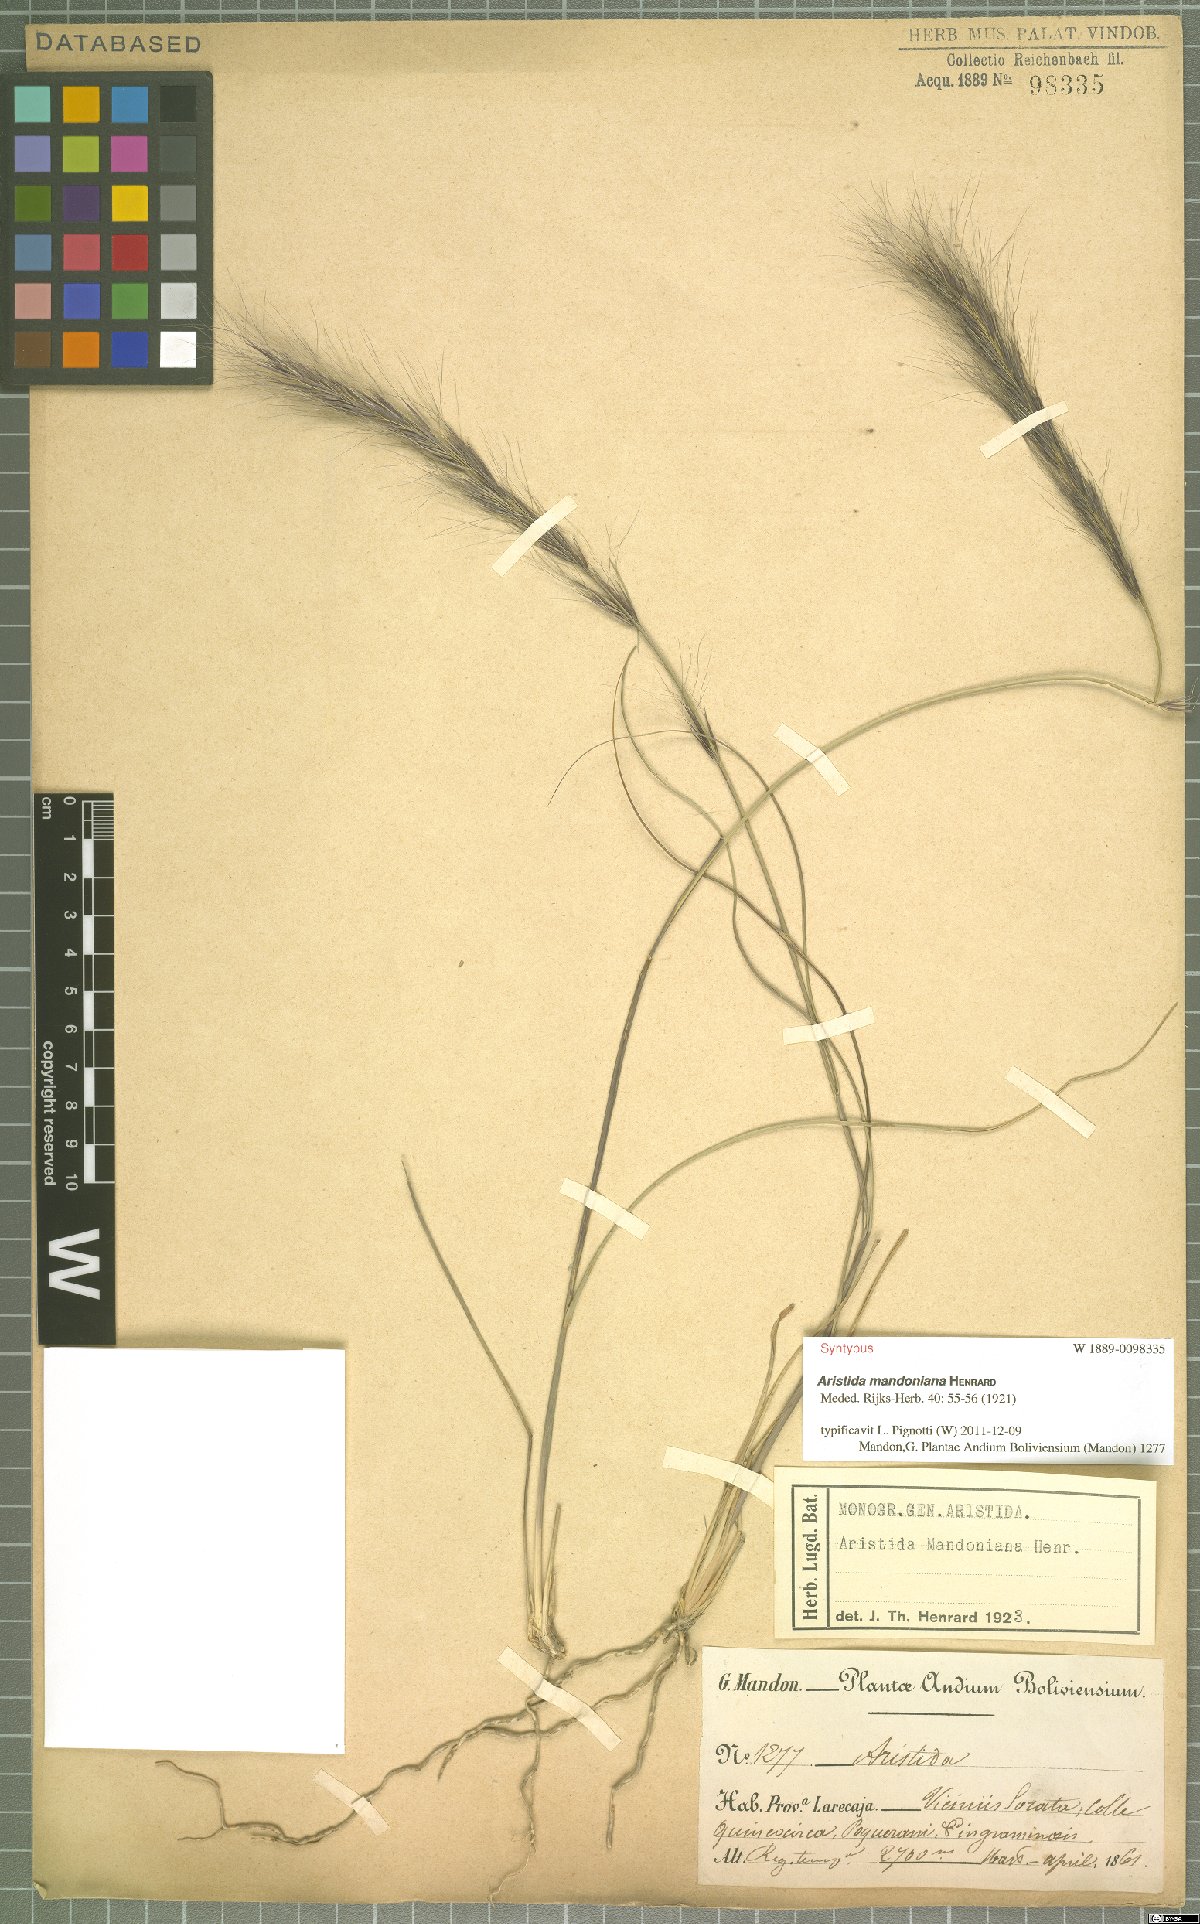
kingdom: Plantae
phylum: Tracheophyta
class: Liliopsida
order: Poales
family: Poaceae
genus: Aristida
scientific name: Aristida mandoniana
